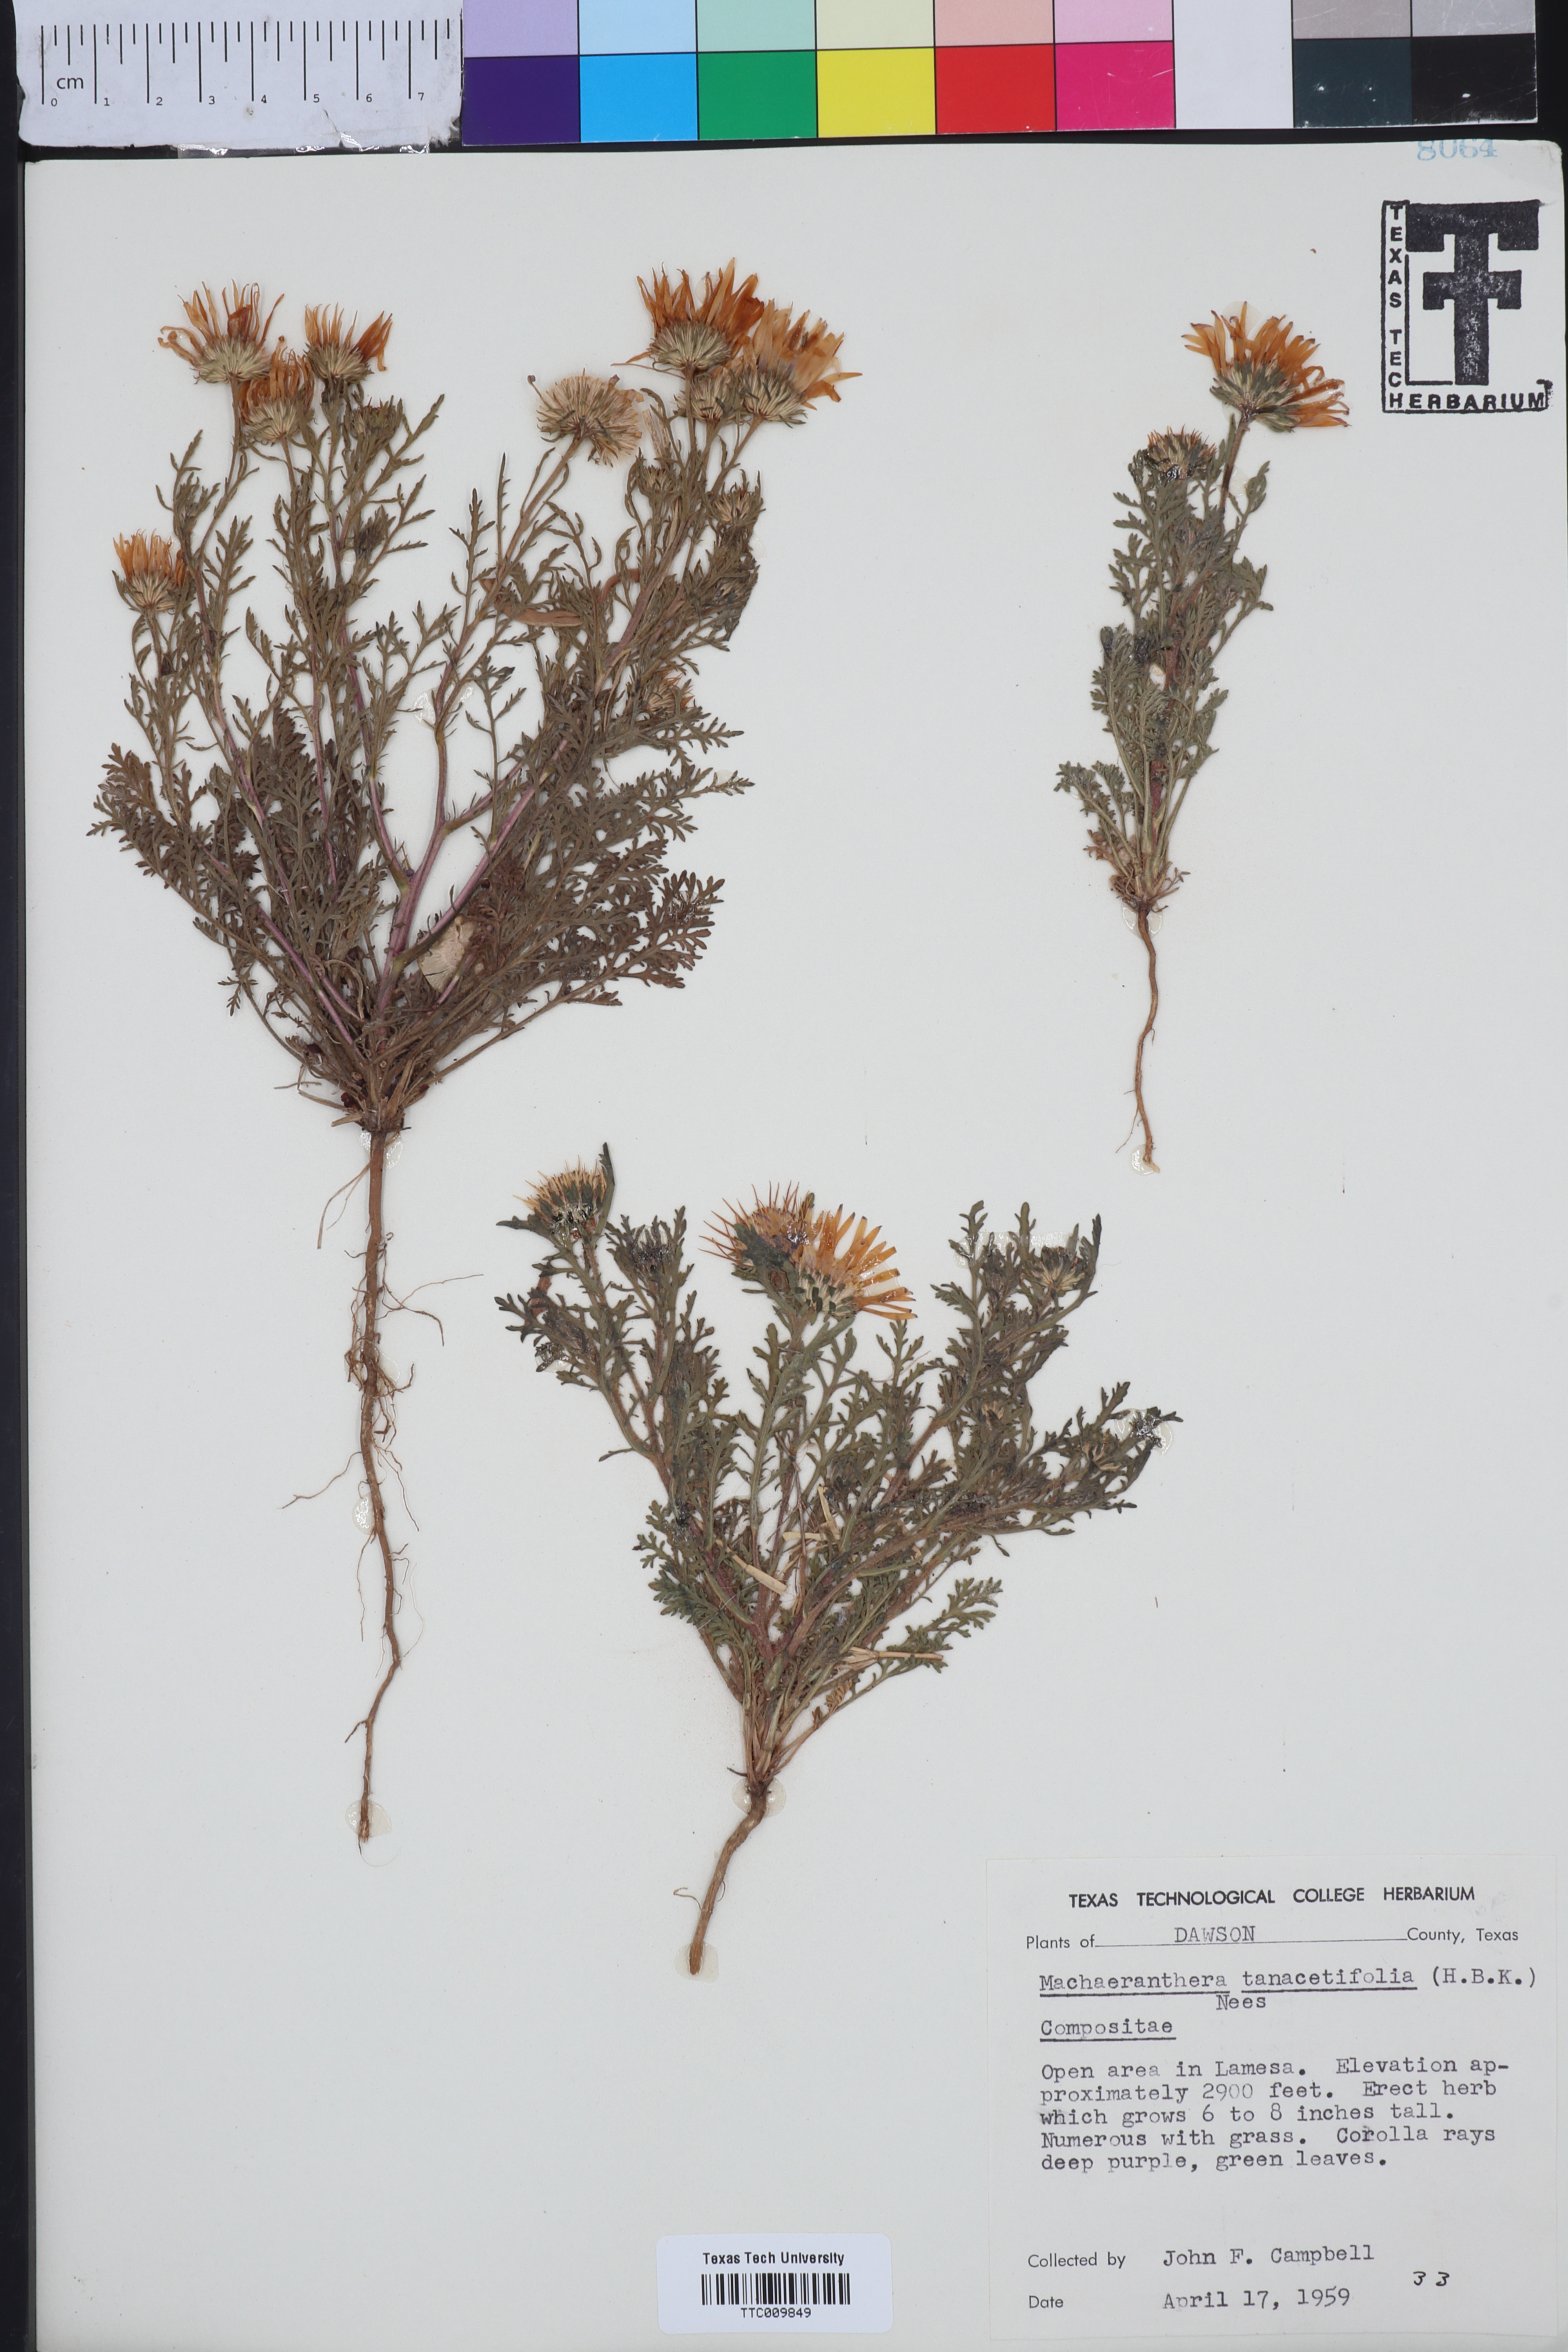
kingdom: Plantae
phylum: Tracheophyta
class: Magnoliopsida
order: Asterales
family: Asteraceae
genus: Machaeranthera
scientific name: Machaeranthera tanacetifolia
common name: Tansy-aster
